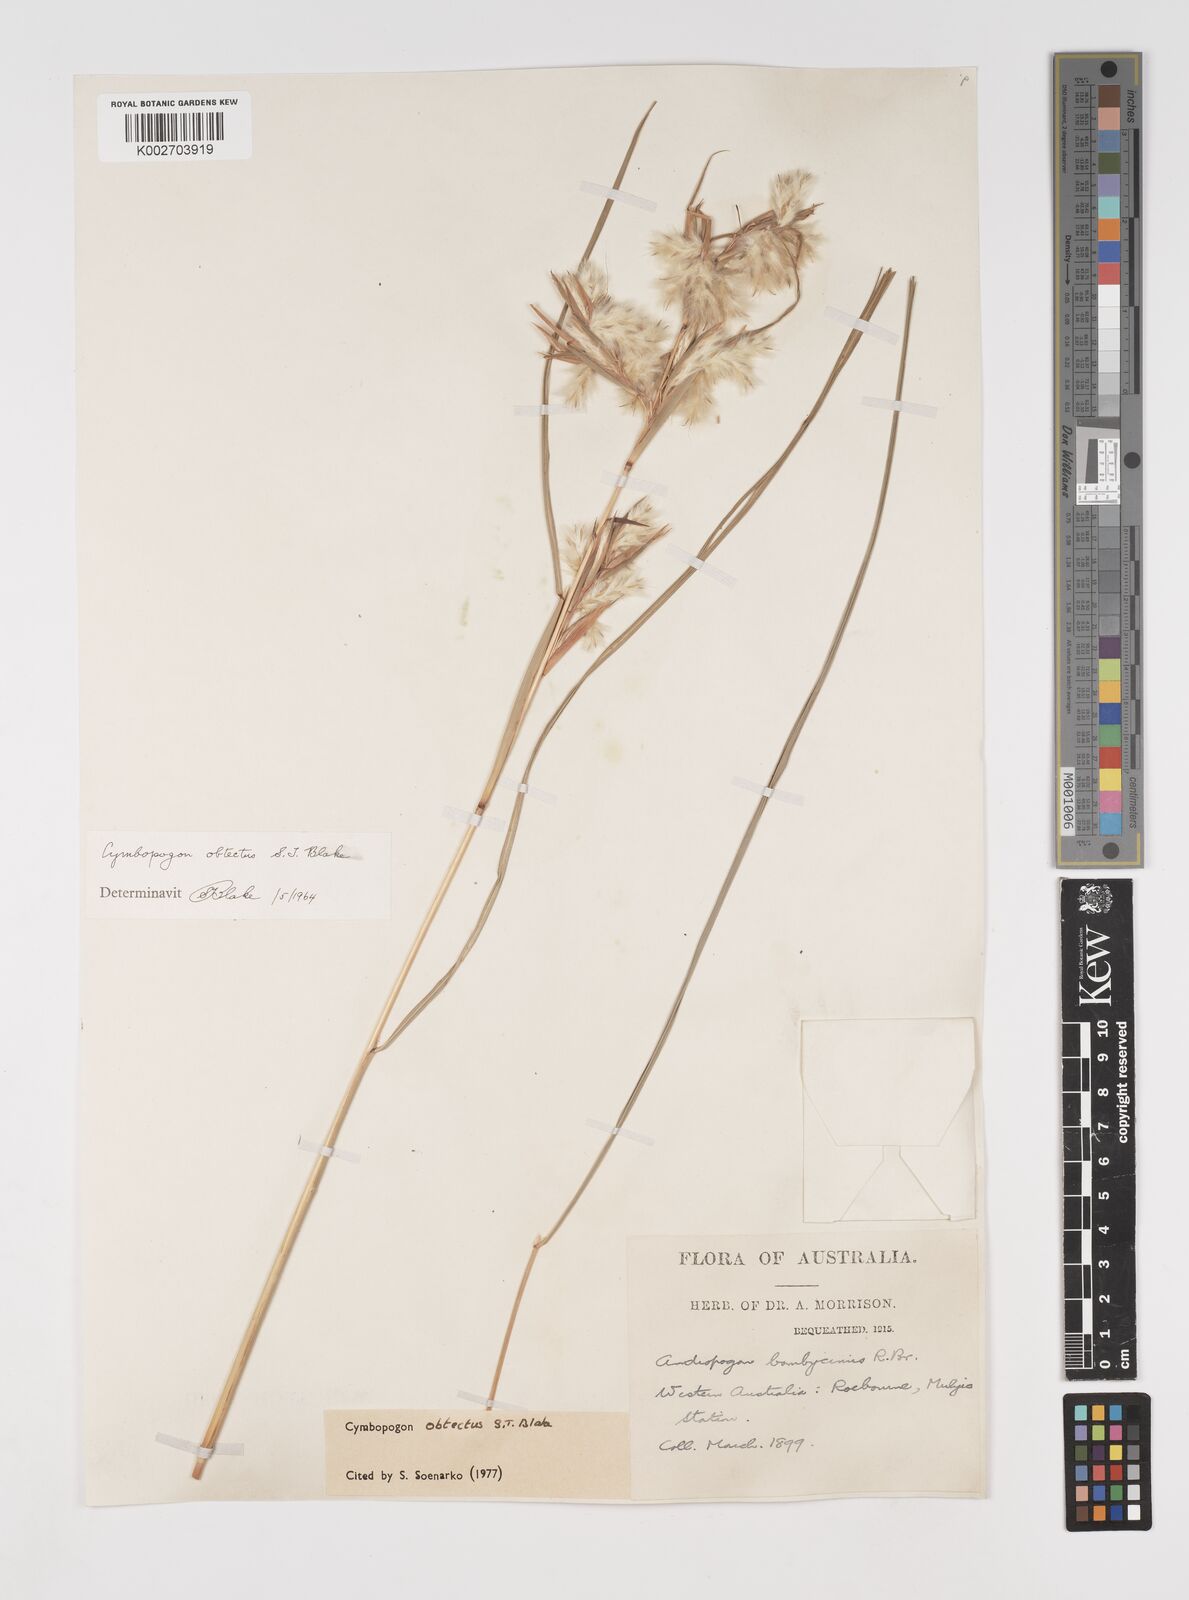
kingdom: Plantae
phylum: Tracheophyta
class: Liliopsida
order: Poales
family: Poaceae
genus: Cymbopogon
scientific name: Cymbopogon obtectus
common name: Silky heads
